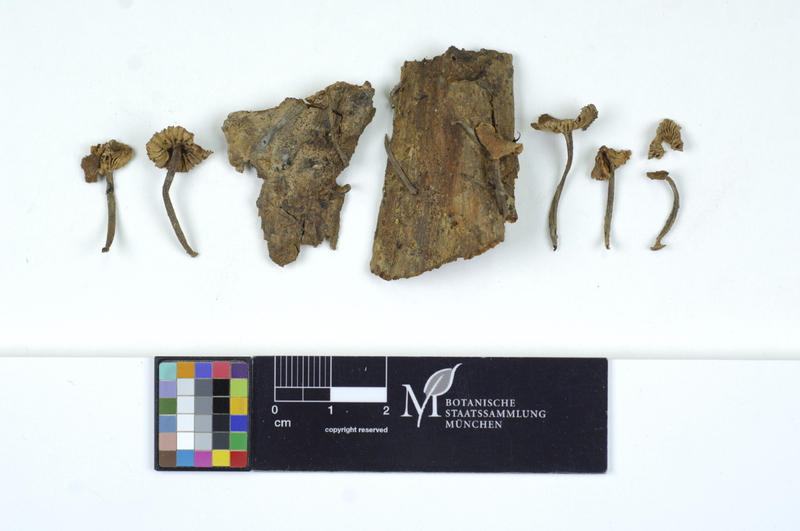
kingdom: Fungi
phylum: Basidiomycota
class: Agaricomycetes
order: Agaricales
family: Omphalotaceae
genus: Gymnopus
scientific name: Gymnopus foetidus
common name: Foetid parachute
